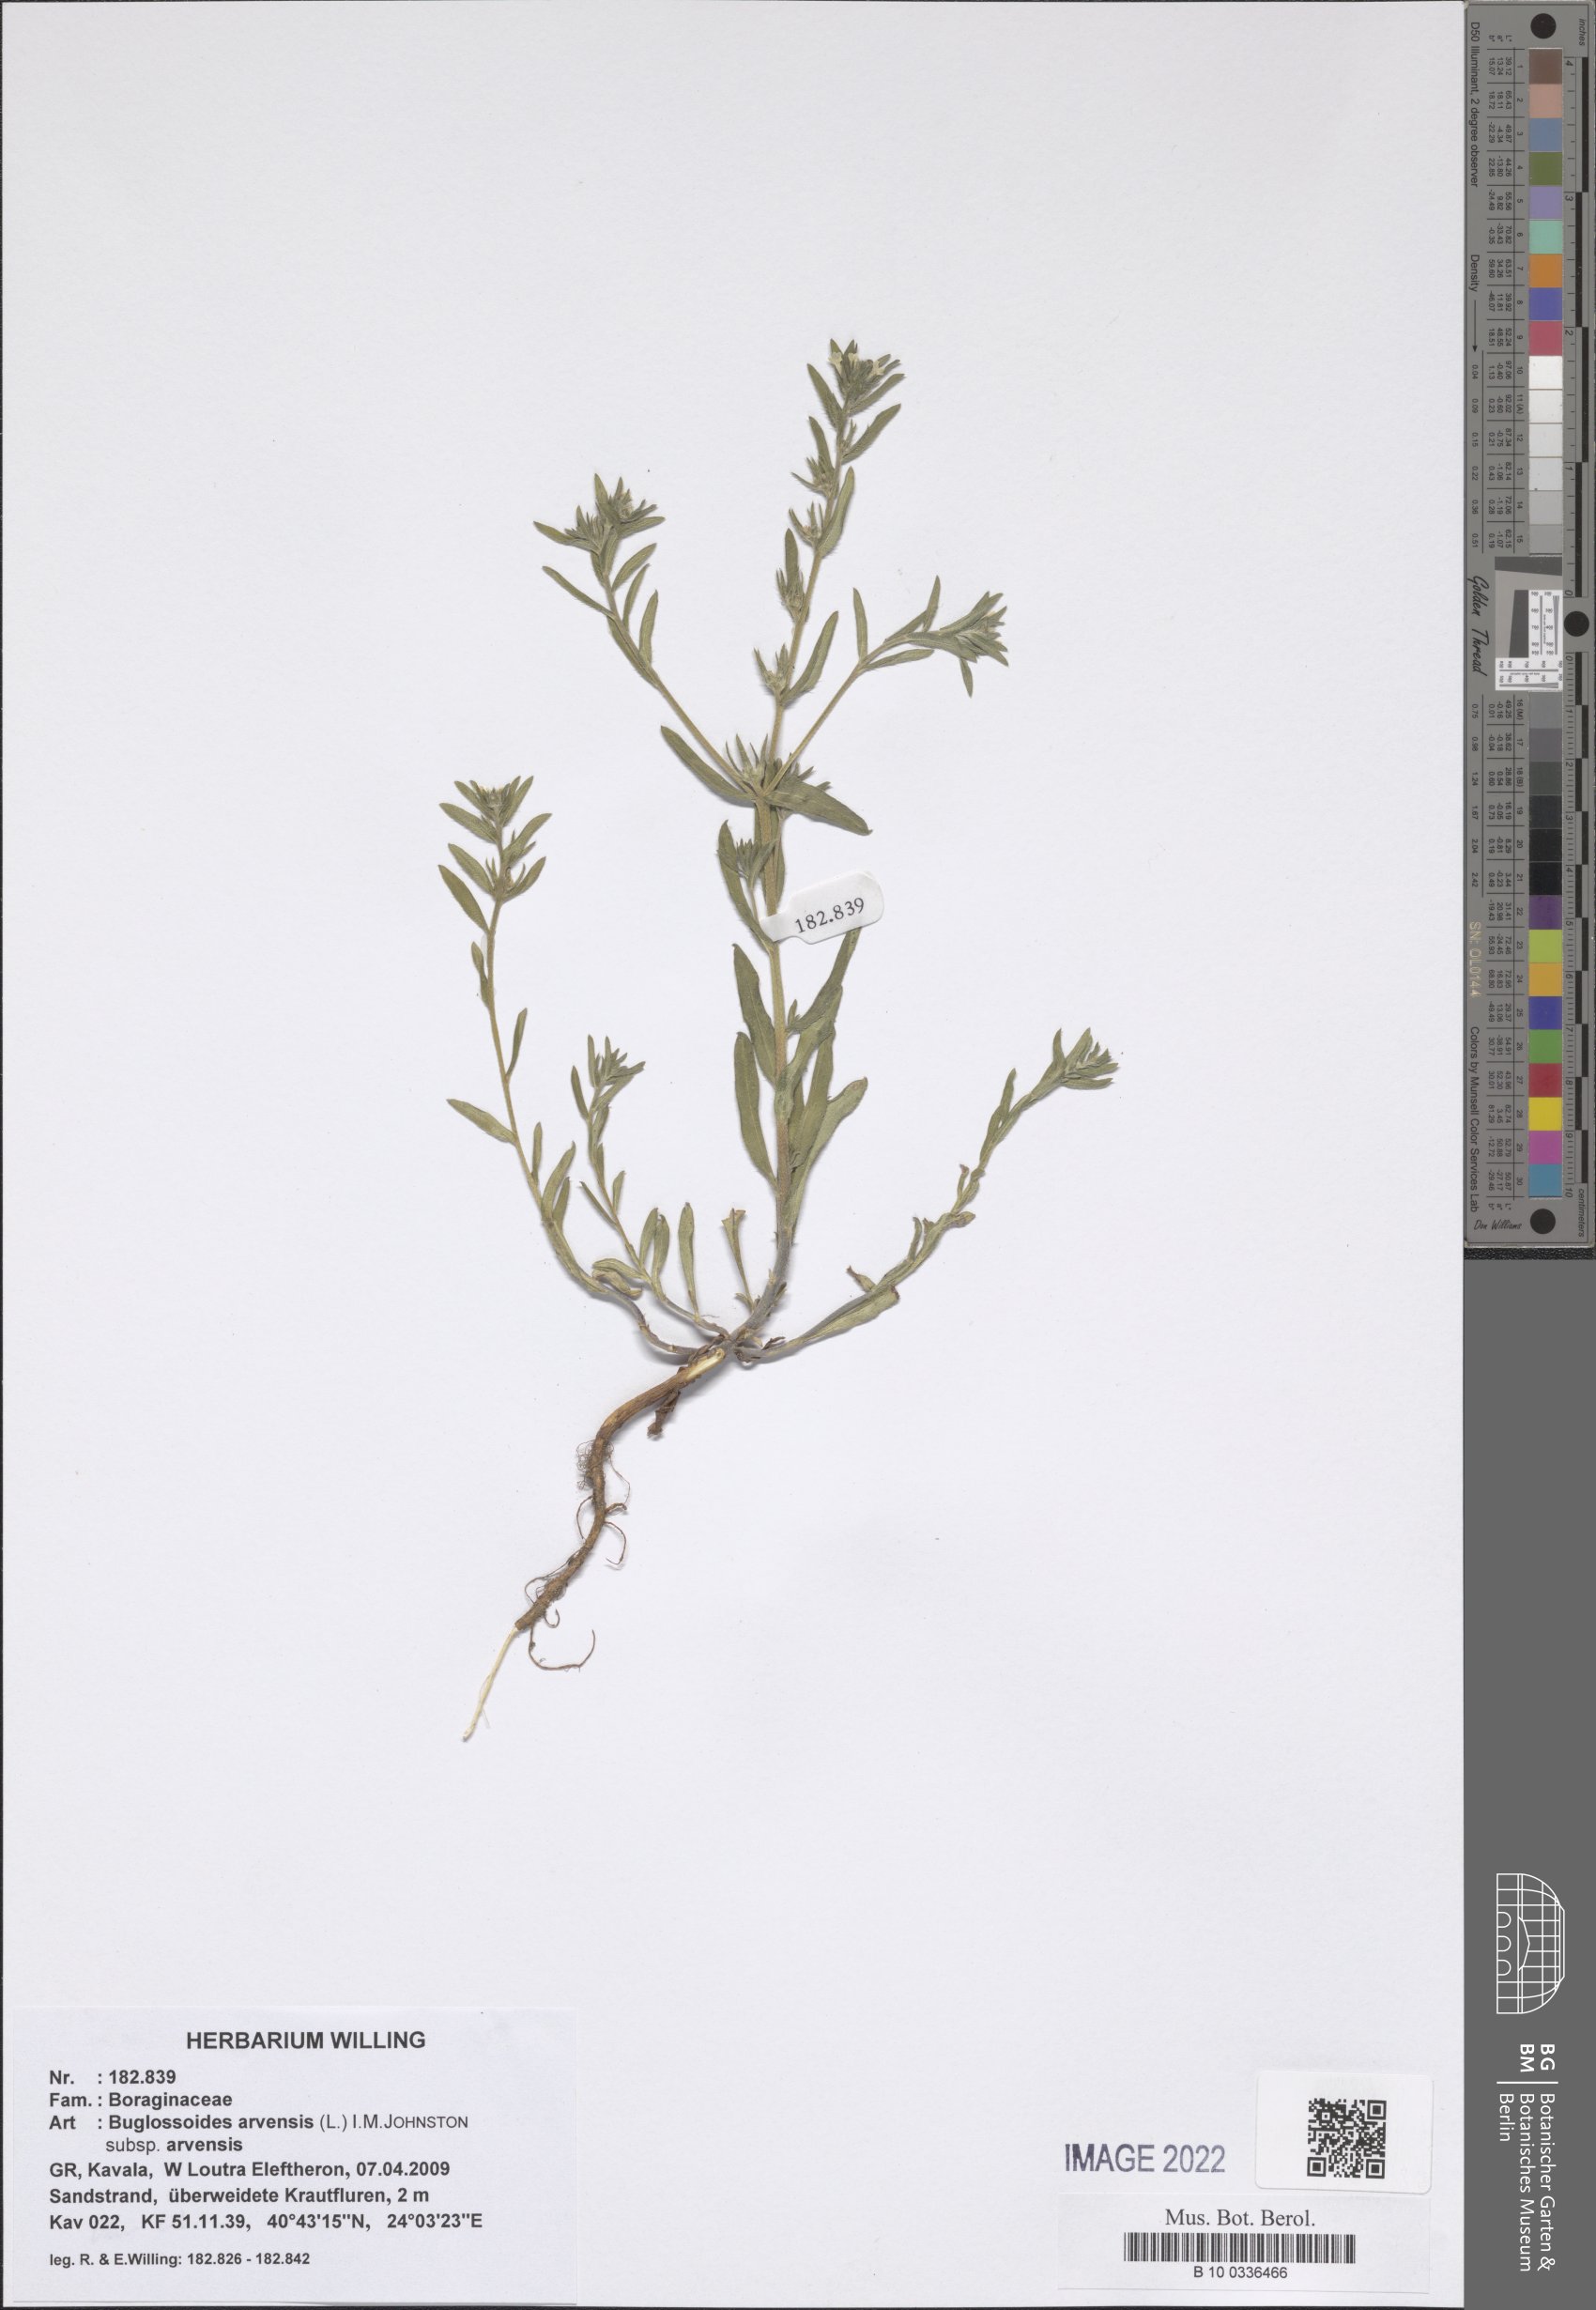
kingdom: Plantae
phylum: Tracheophyta
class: Magnoliopsida
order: Boraginales
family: Boraginaceae
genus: Buglossoides
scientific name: Buglossoides arvensis
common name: Corn gromwell
